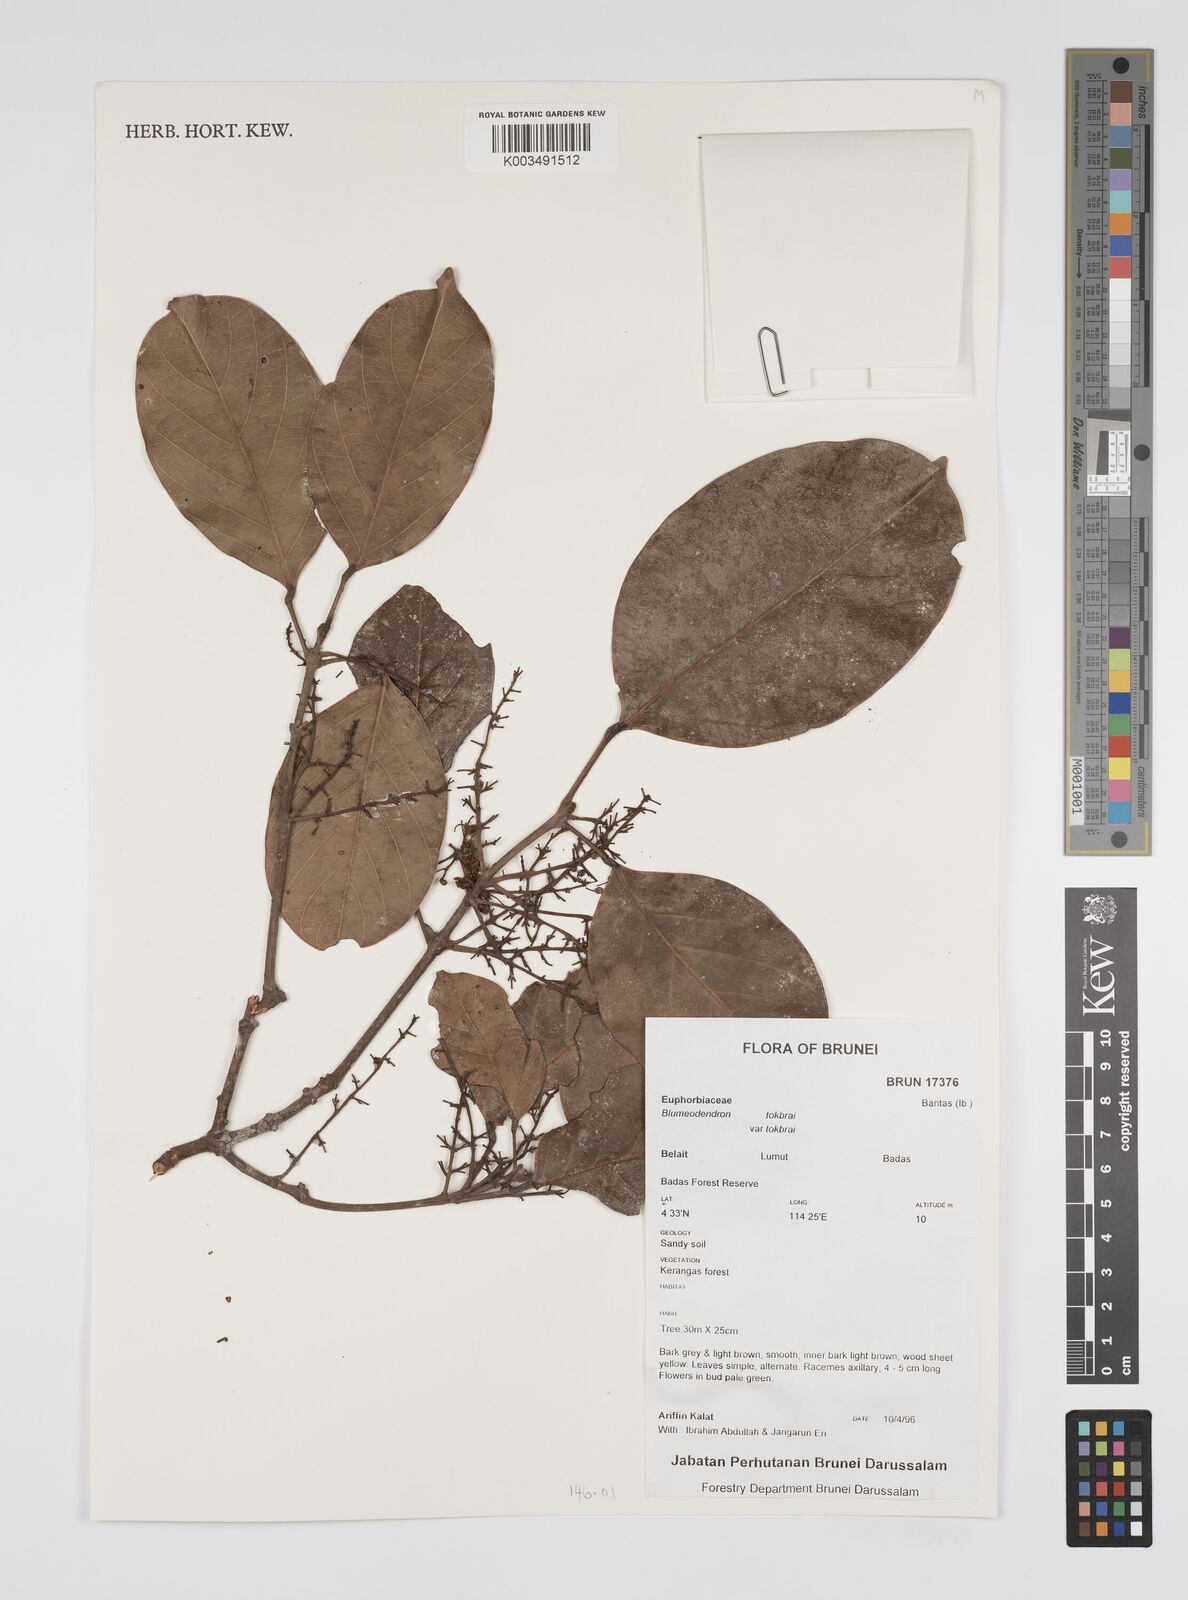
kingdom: Plantae
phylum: Tracheophyta
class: Magnoliopsida
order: Malpighiales
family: Euphorbiaceae
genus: Blumeodendron
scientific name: Blumeodendron tokbrai
